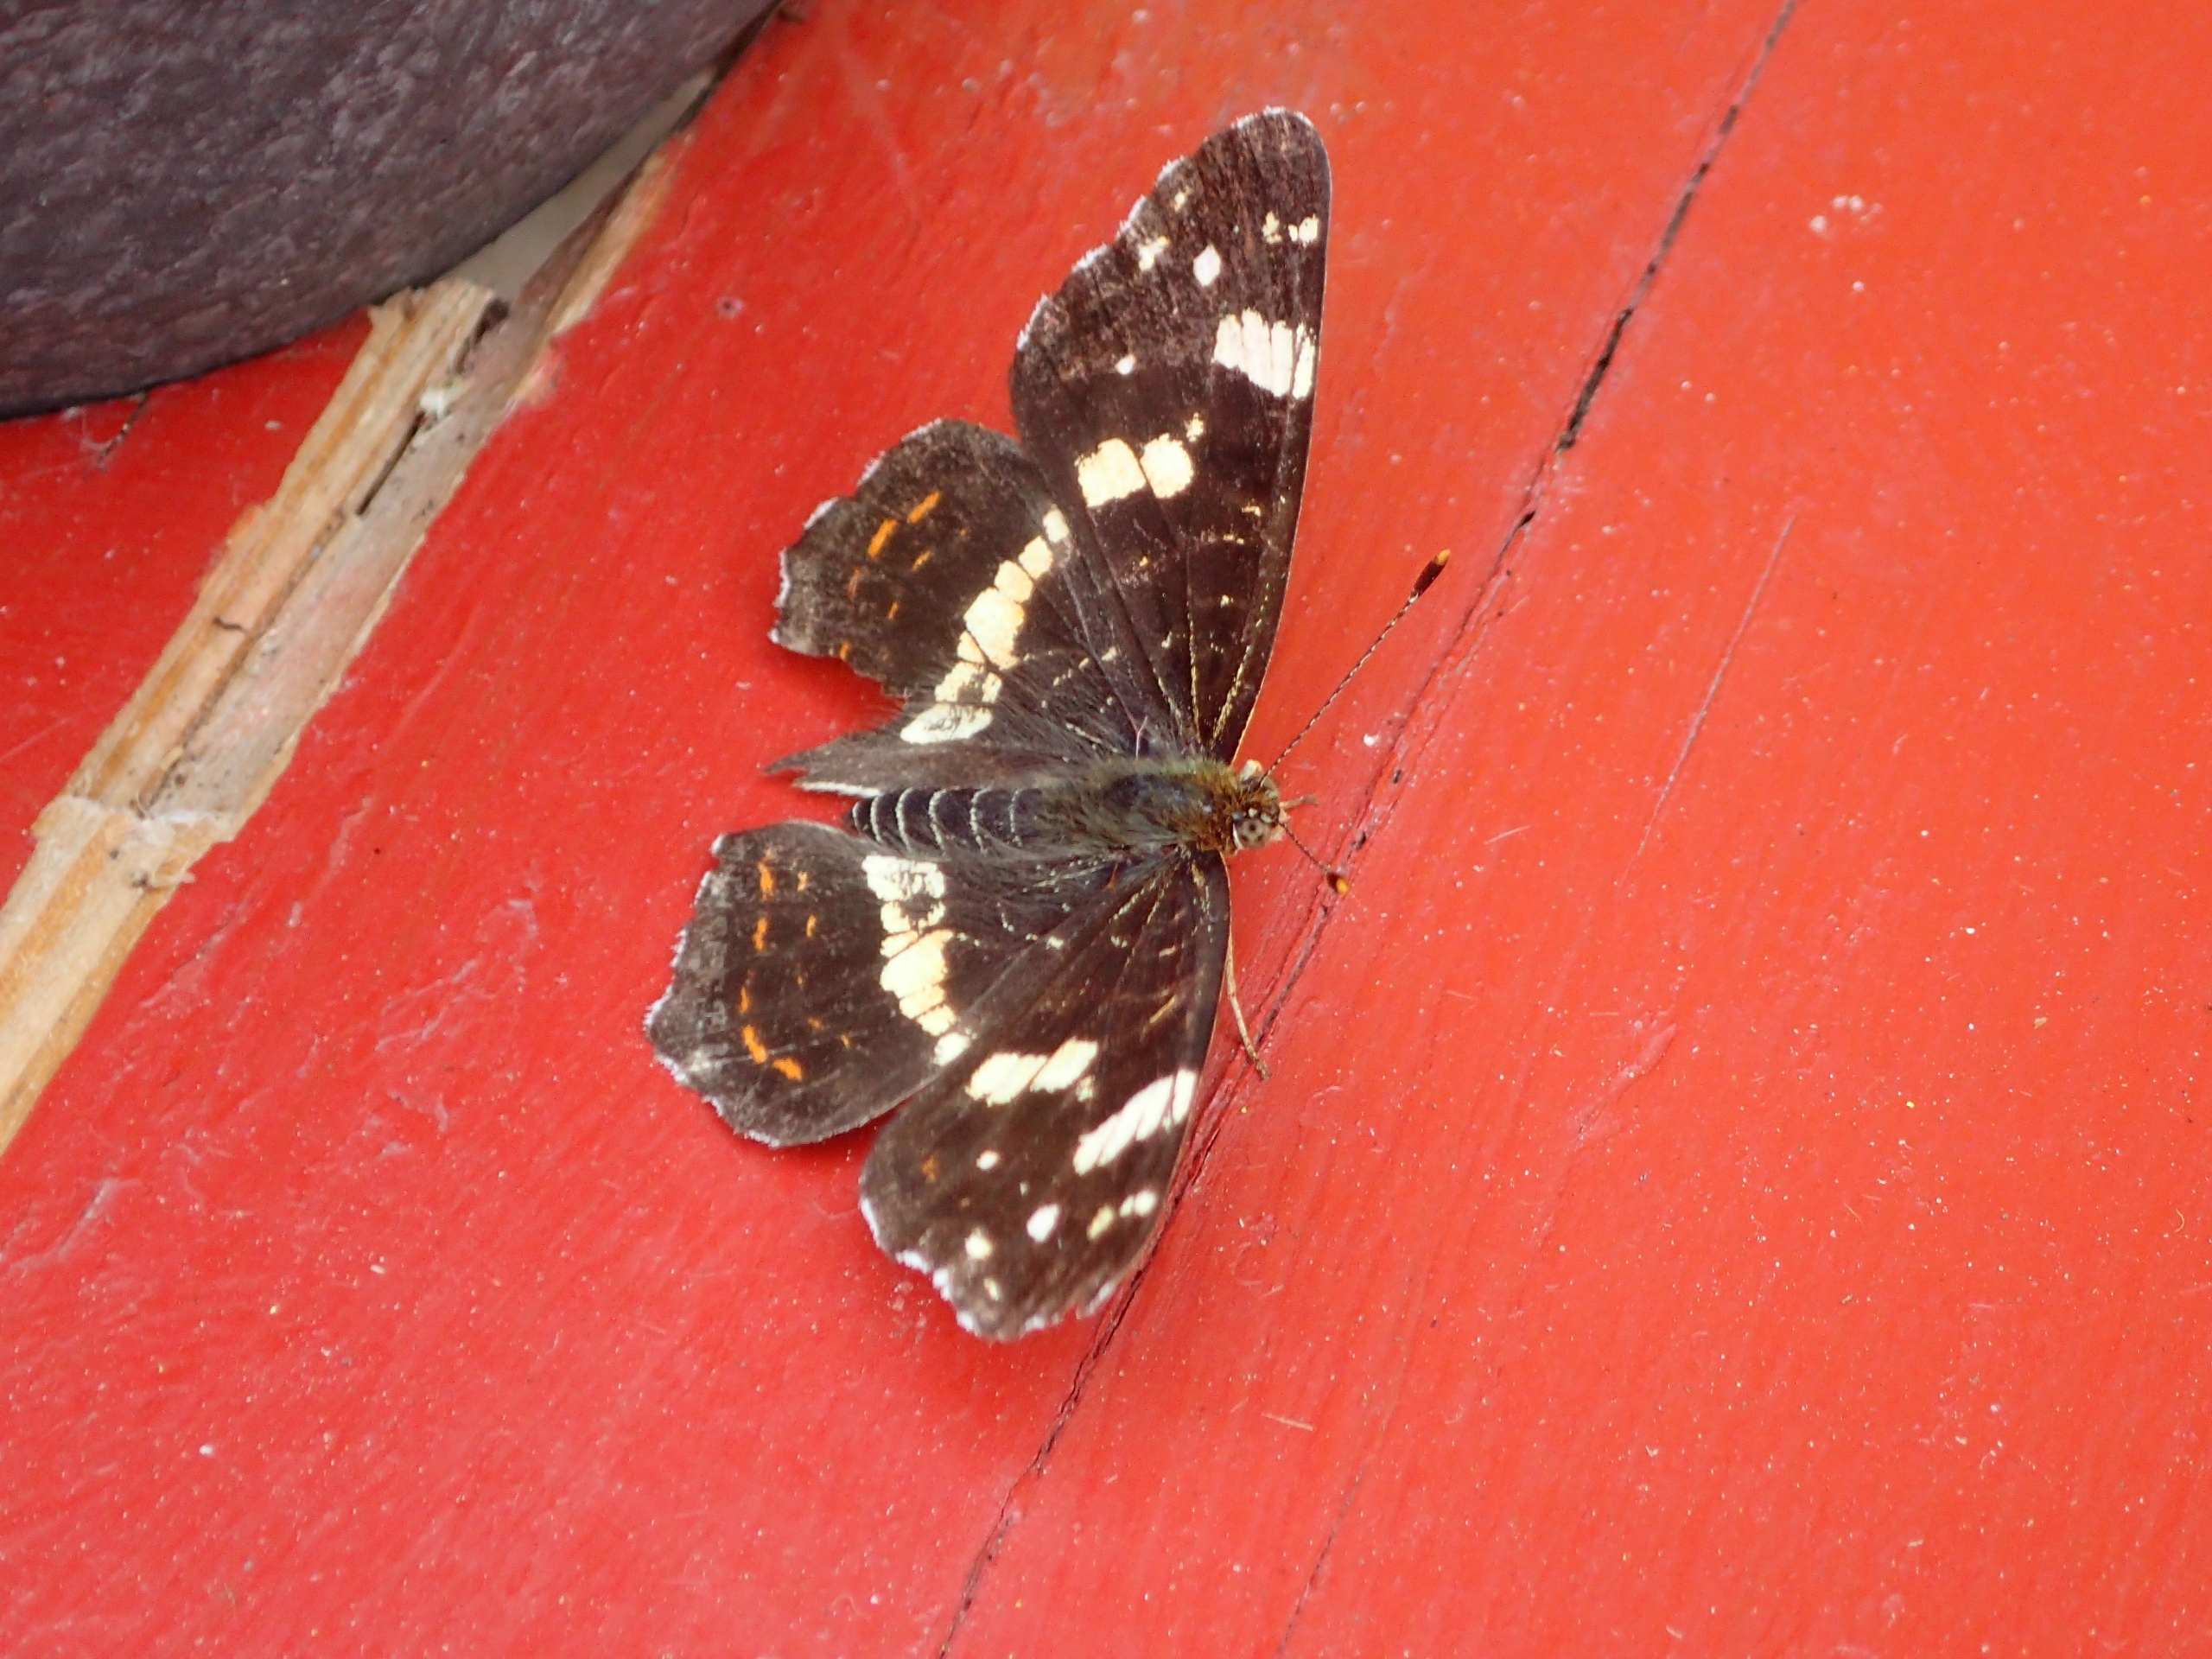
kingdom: Animalia
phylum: Arthropoda
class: Insecta
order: Lepidoptera
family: Nymphalidae
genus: Araschnia
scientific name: Araschnia levana
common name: Nældesommerfugl
